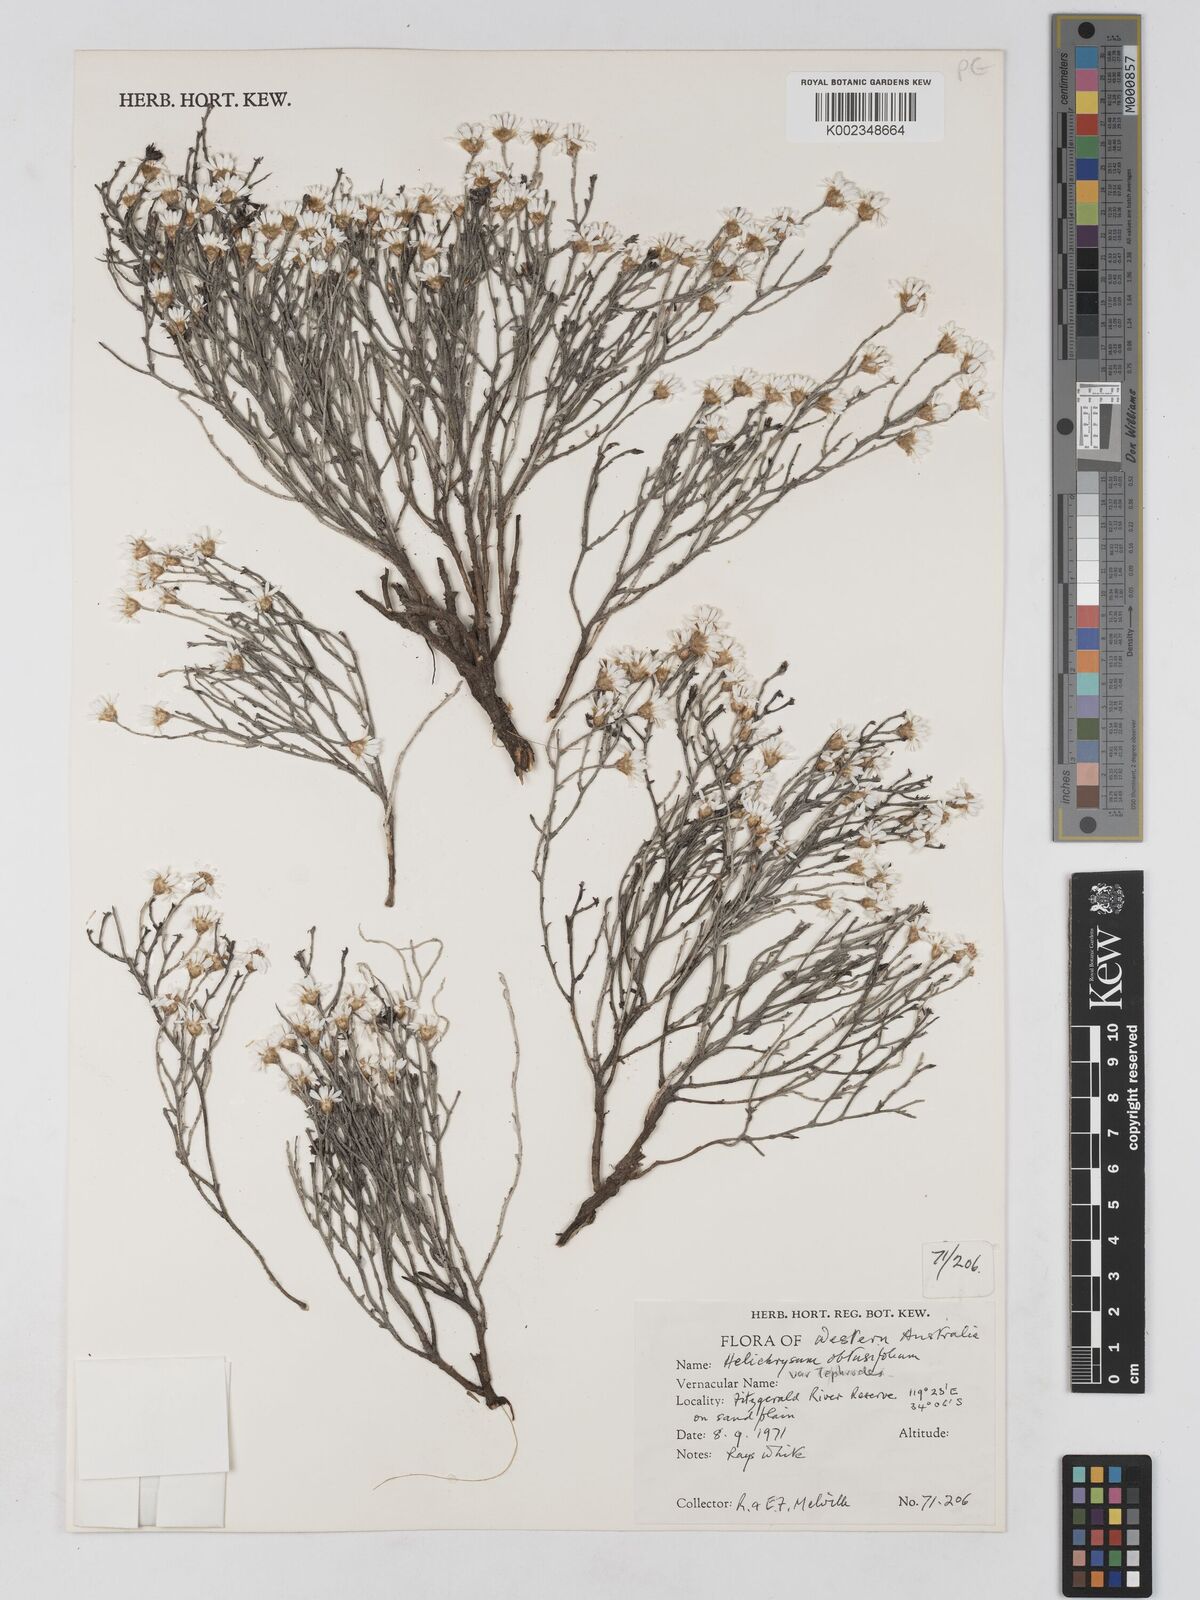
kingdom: Plantae
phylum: Tracheophyta
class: Magnoliopsida
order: Asterales
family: Asteraceae
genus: Argentipallium
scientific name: Argentipallium
